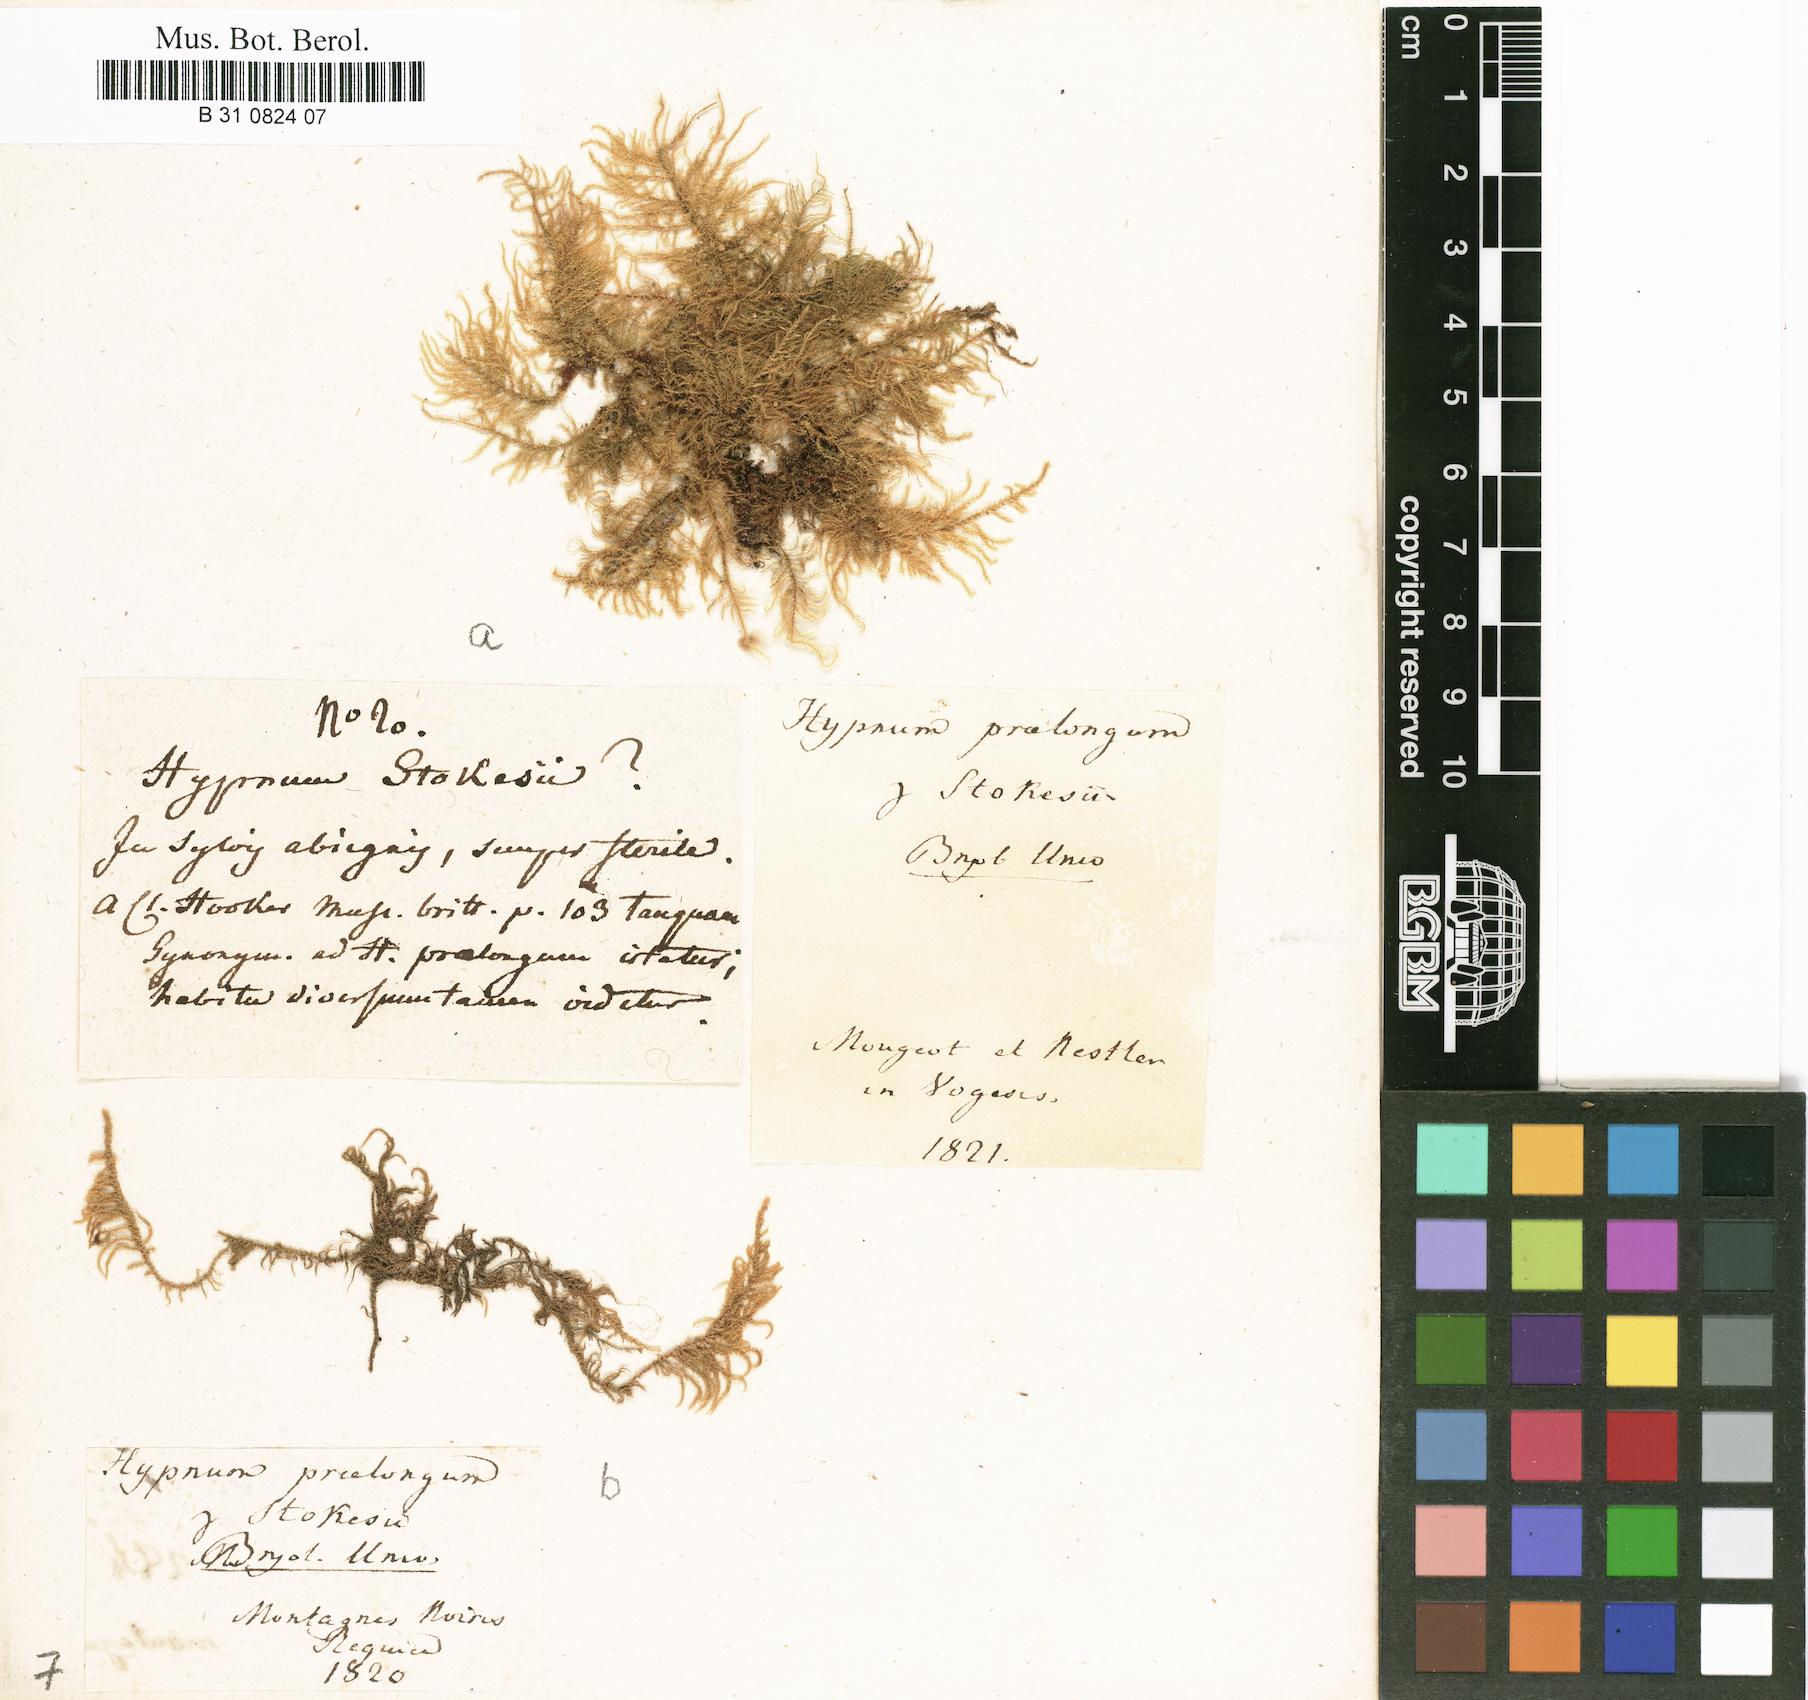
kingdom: Plantae
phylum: Bryophyta
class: Bryopsida
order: Hypnales
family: Brachytheciaceae
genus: Kindbergia
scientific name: Kindbergia praelonga
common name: Slender beaked moss
